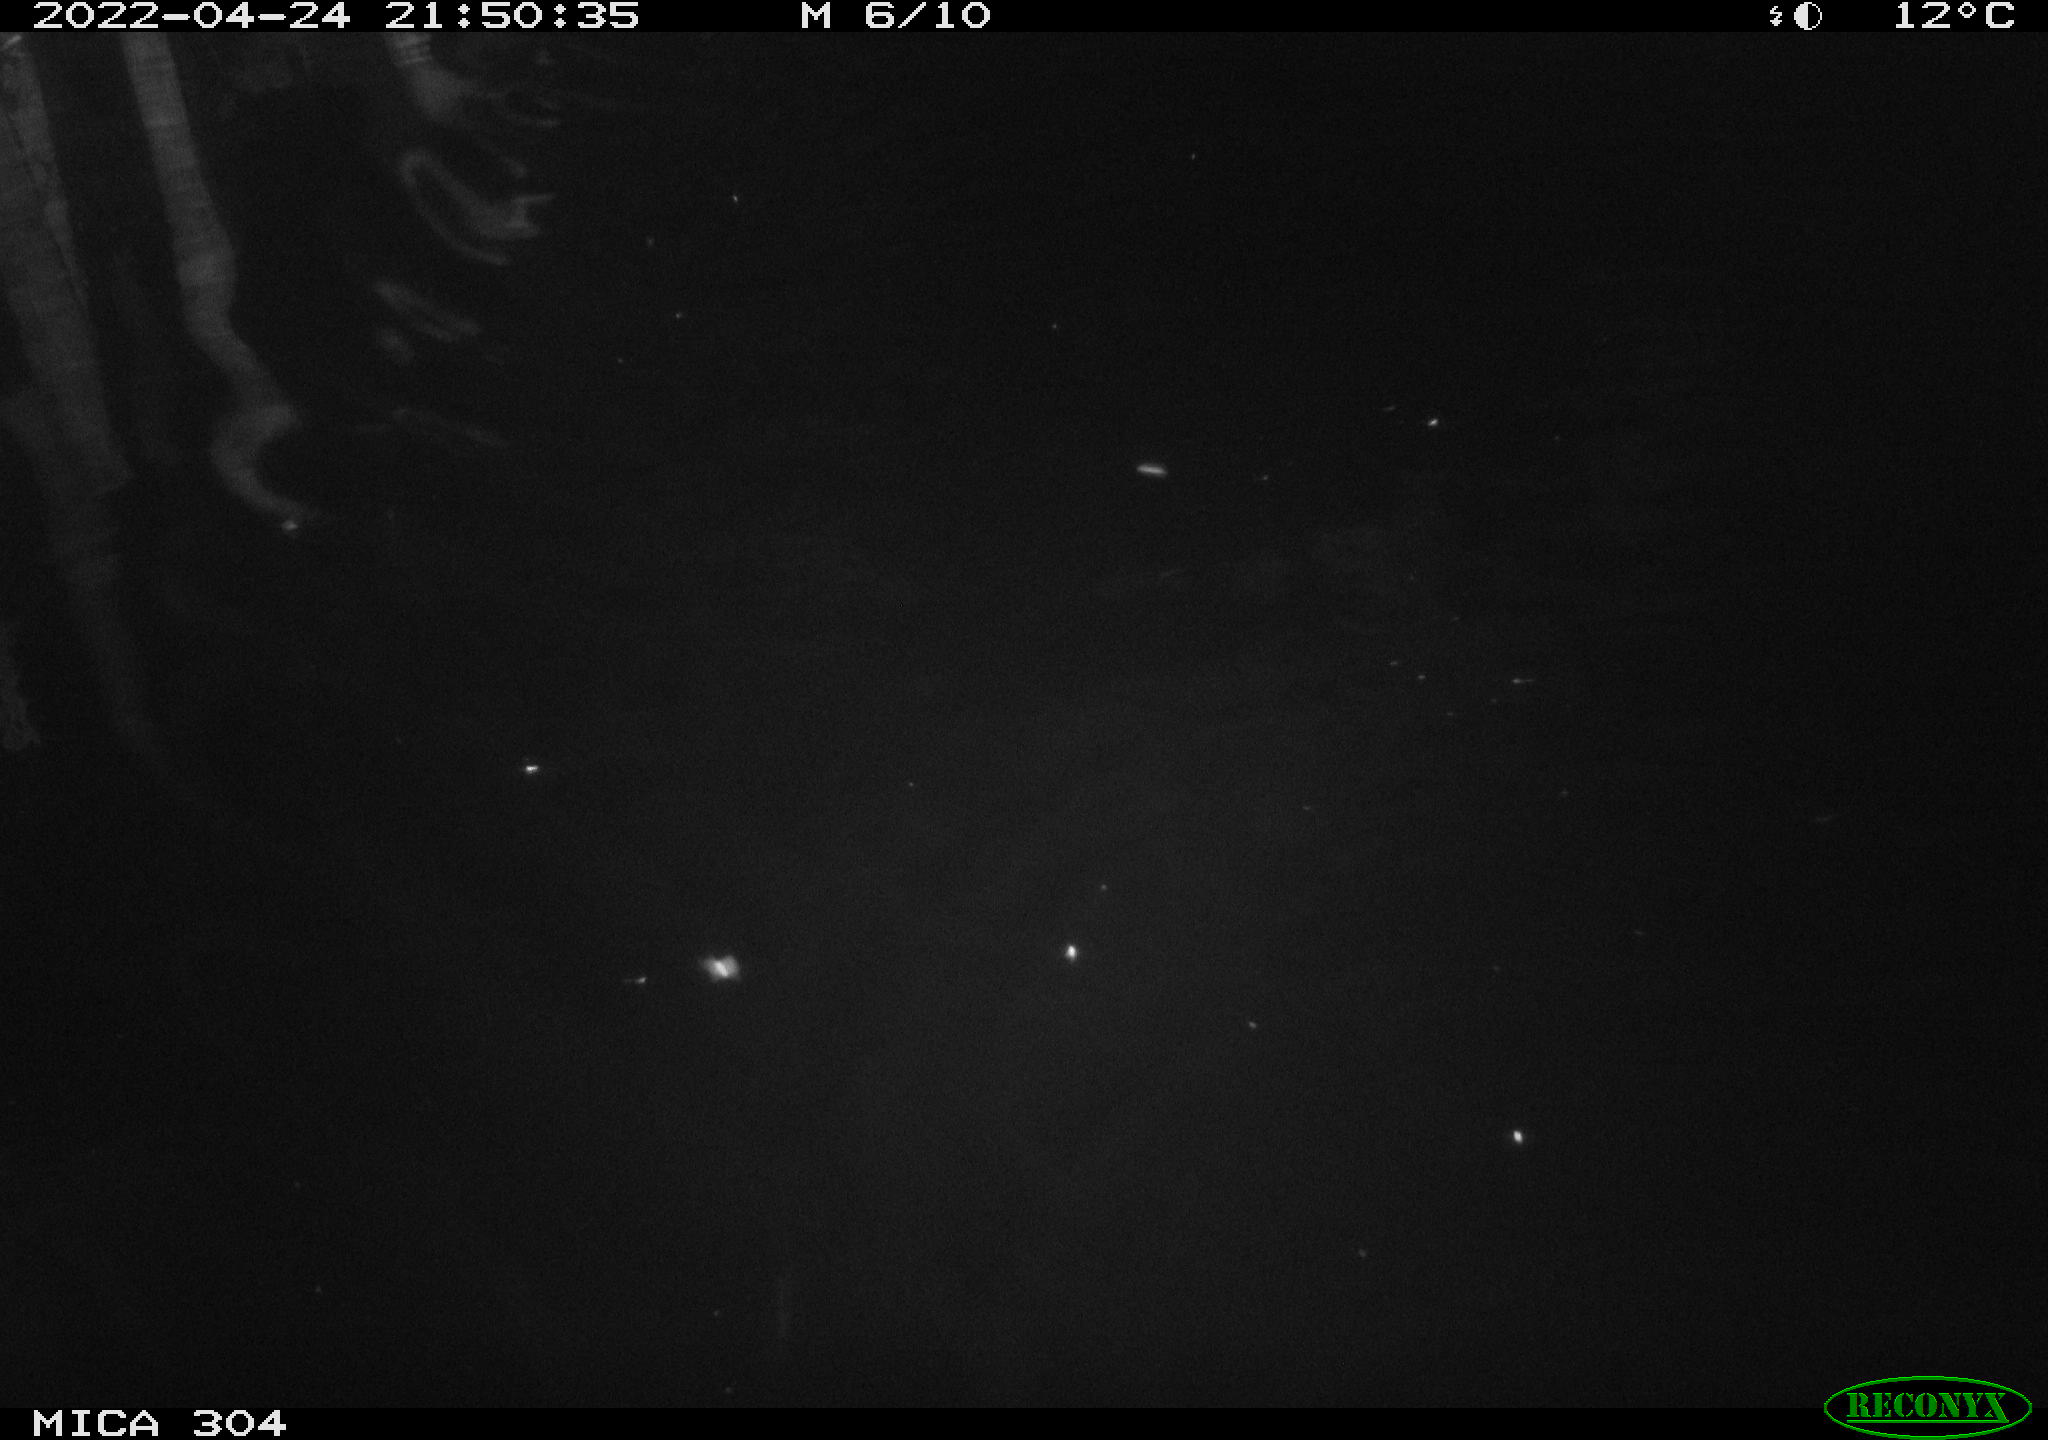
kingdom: Animalia
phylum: Chordata
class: Mammalia
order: Rodentia
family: Cricetidae
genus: Ondatra
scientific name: Ondatra zibethicus
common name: Muskrat
